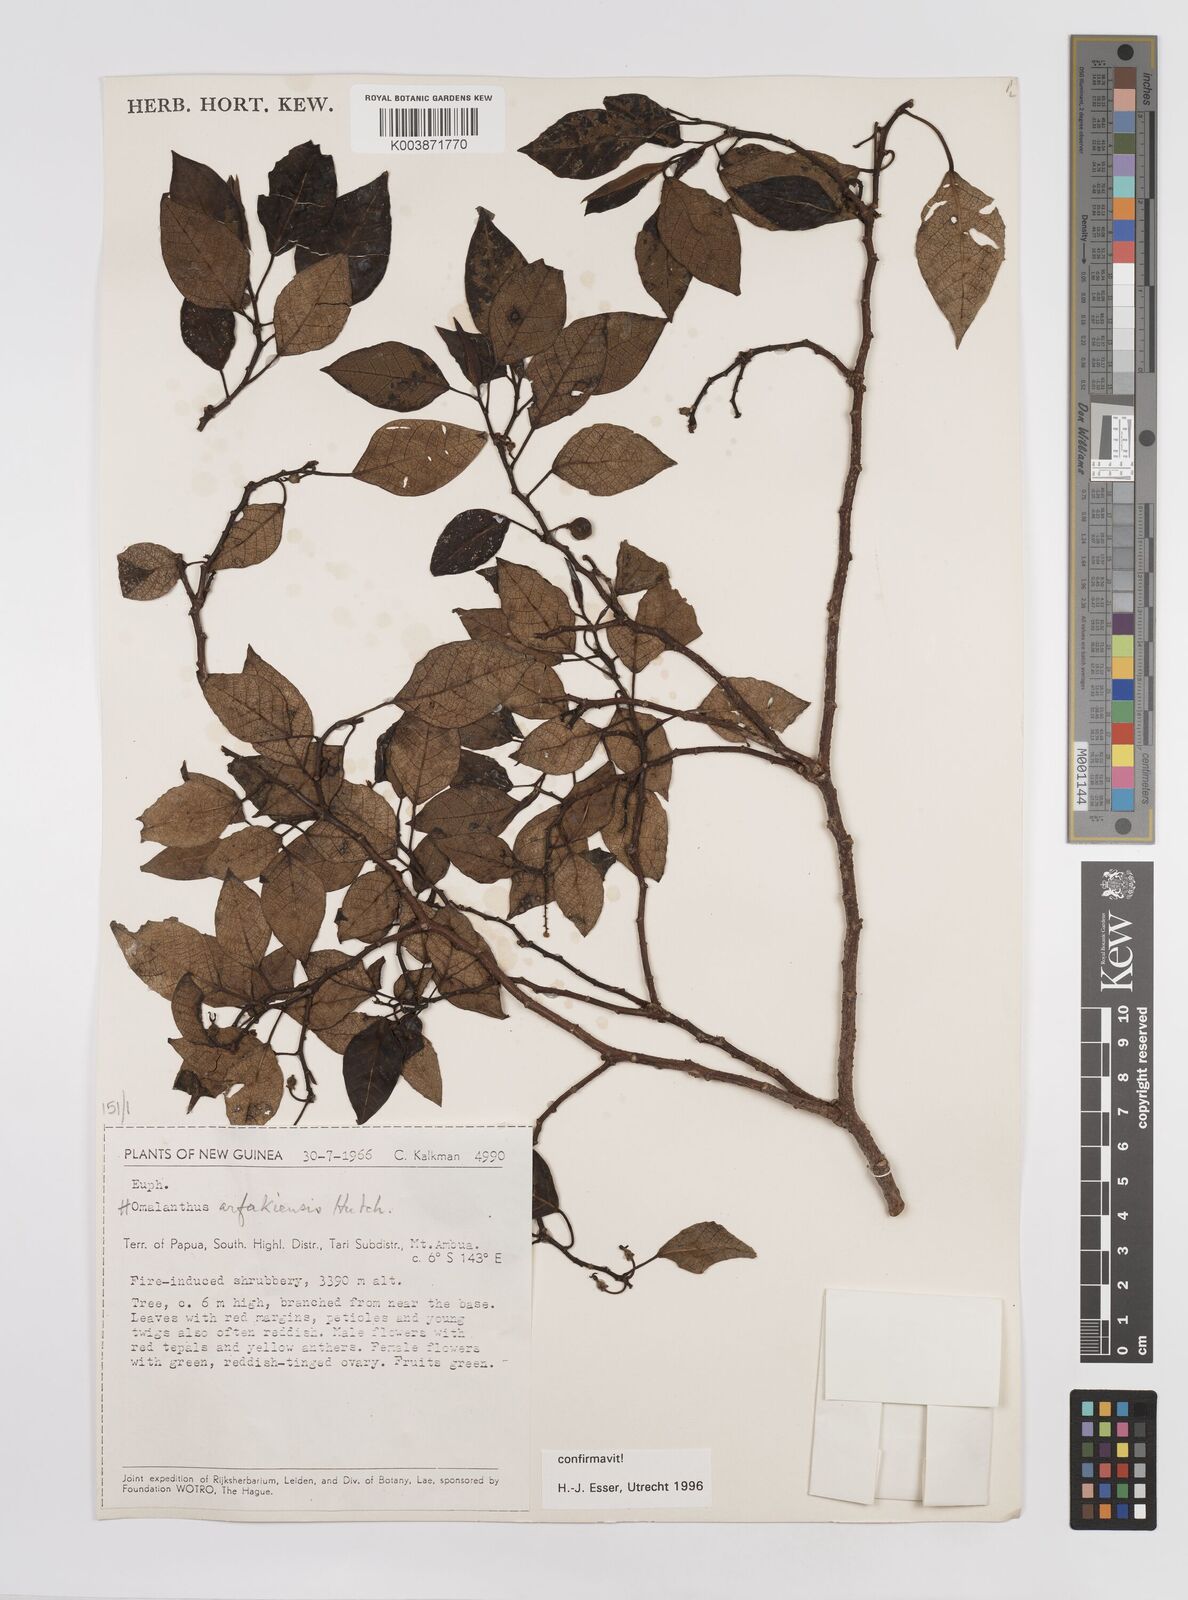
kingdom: Plantae
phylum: Tracheophyta
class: Magnoliopsida
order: Malpighiales
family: Euphorbiaceae
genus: Homalanthus
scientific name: Homalanthus arfakiensis
